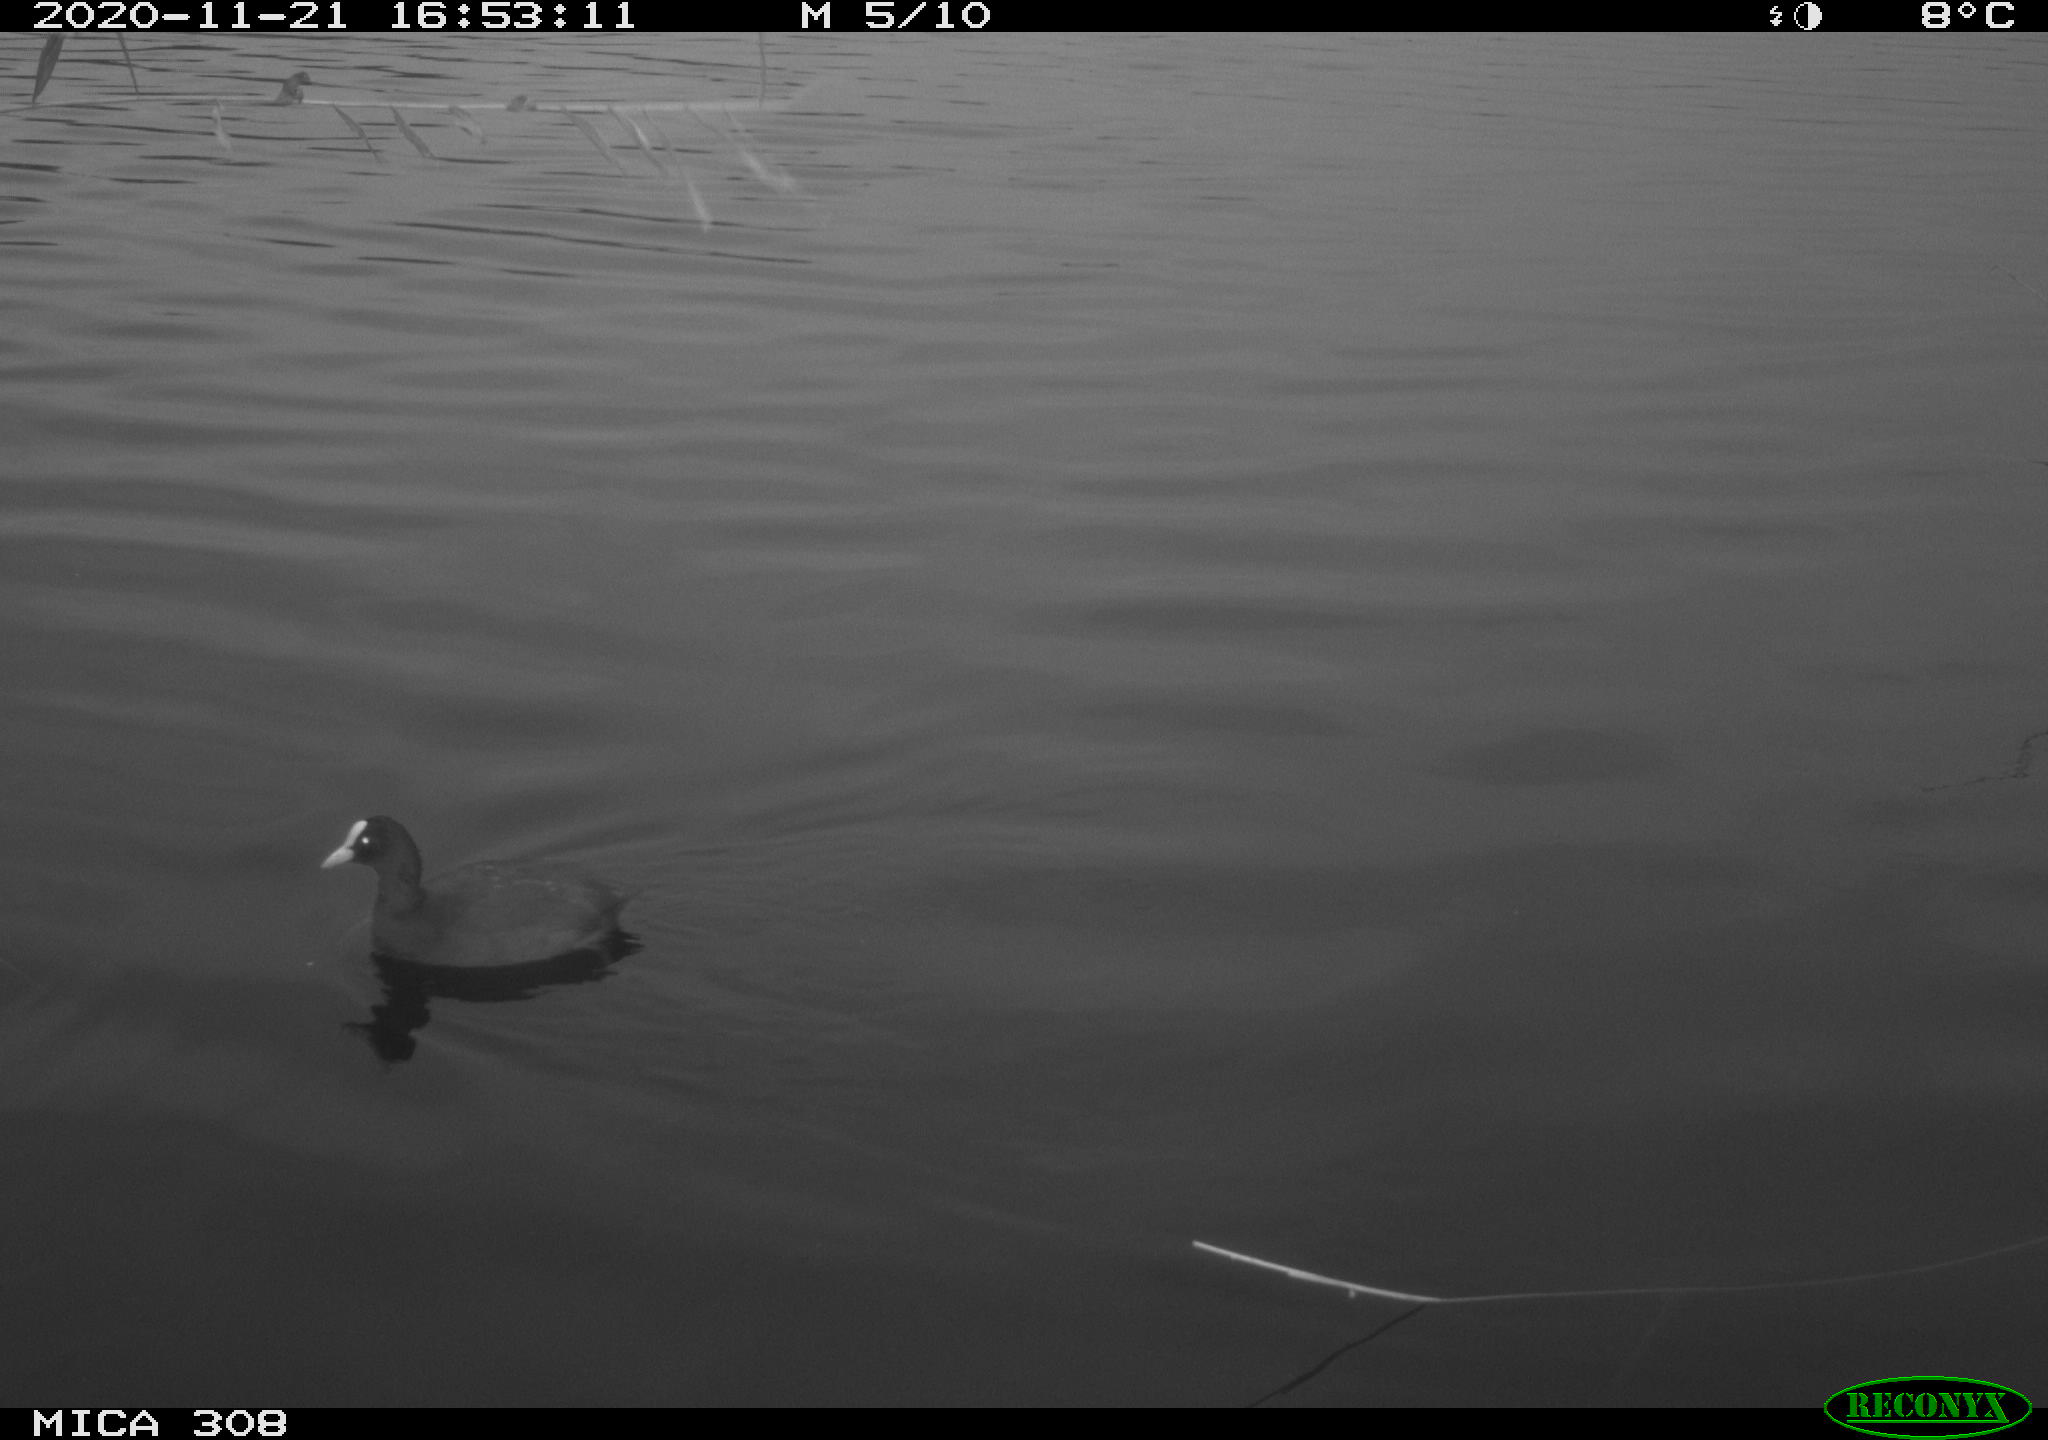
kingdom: Animalia
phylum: Chordata
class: Aves
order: Gruiformes
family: Rallidae
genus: Fulica
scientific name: Fulica atra
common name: Eurasian coot
